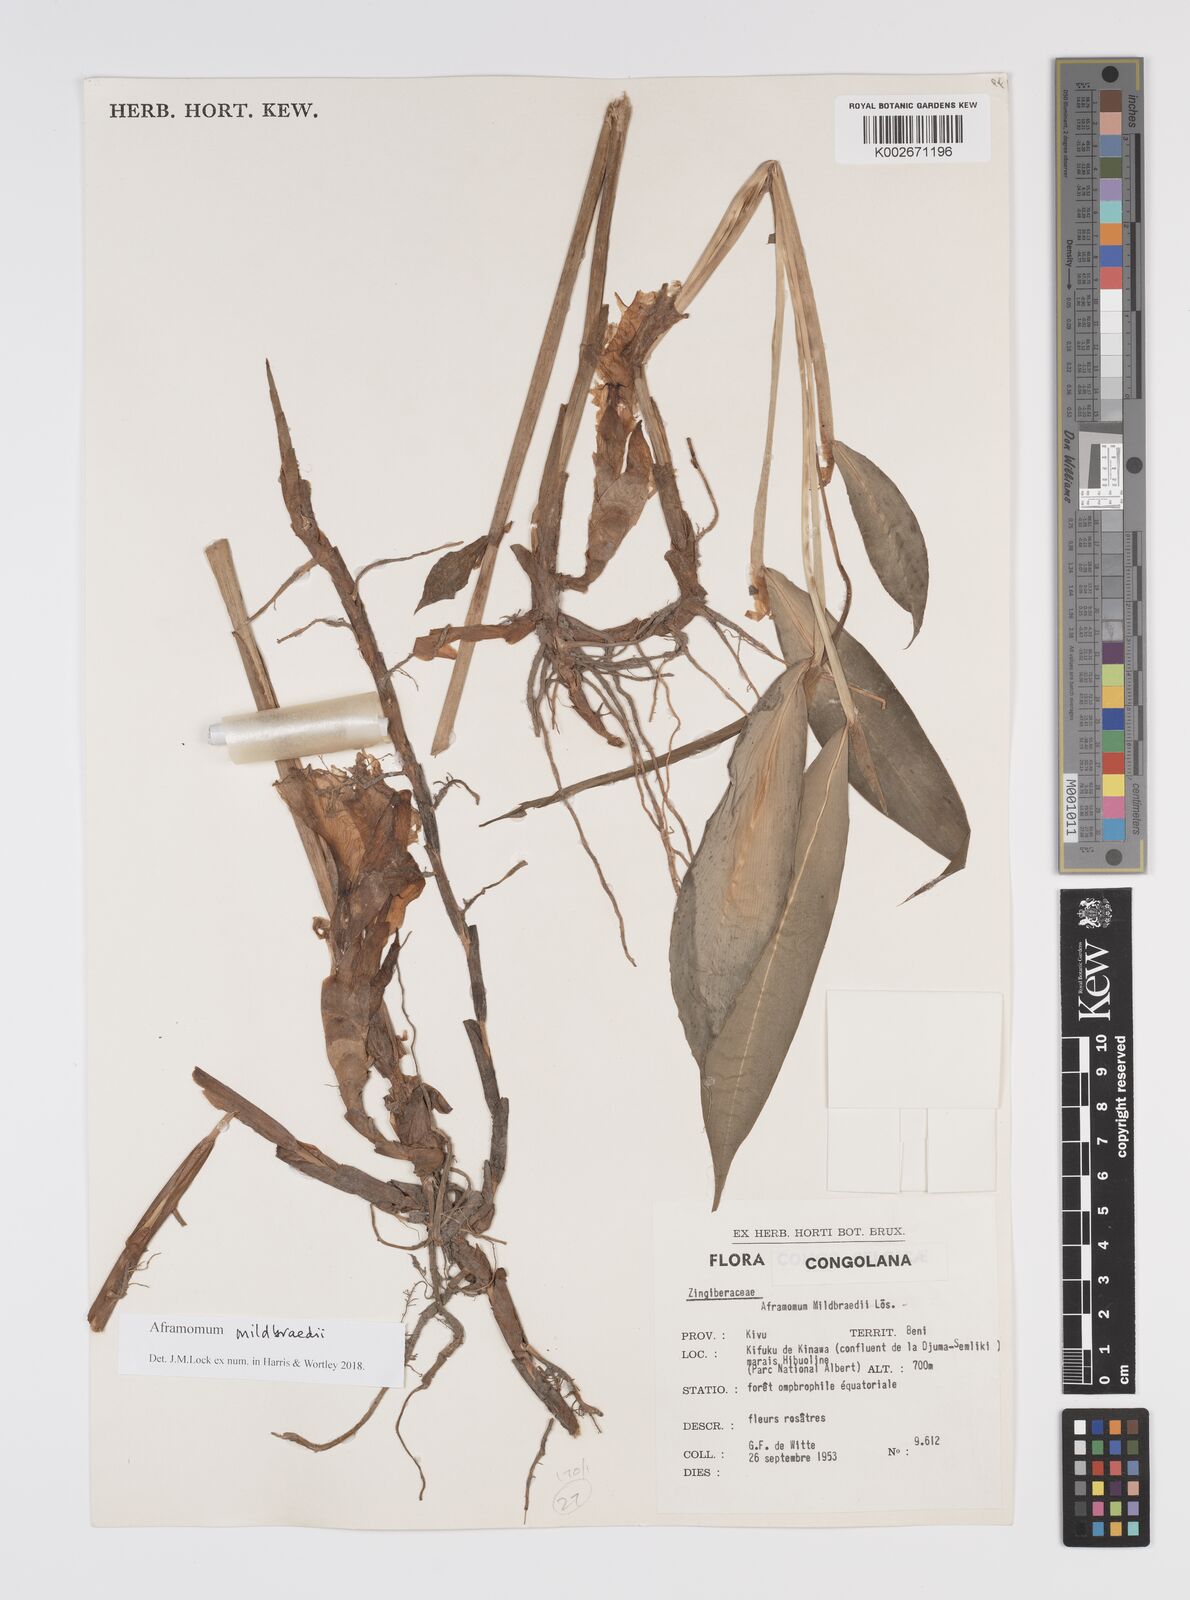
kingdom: Plantae
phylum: Tracheophyta
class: Liliopsida
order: Zingiberales
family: Zingiberaceae
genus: Aframomum
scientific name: Aframomum mildbraedii
